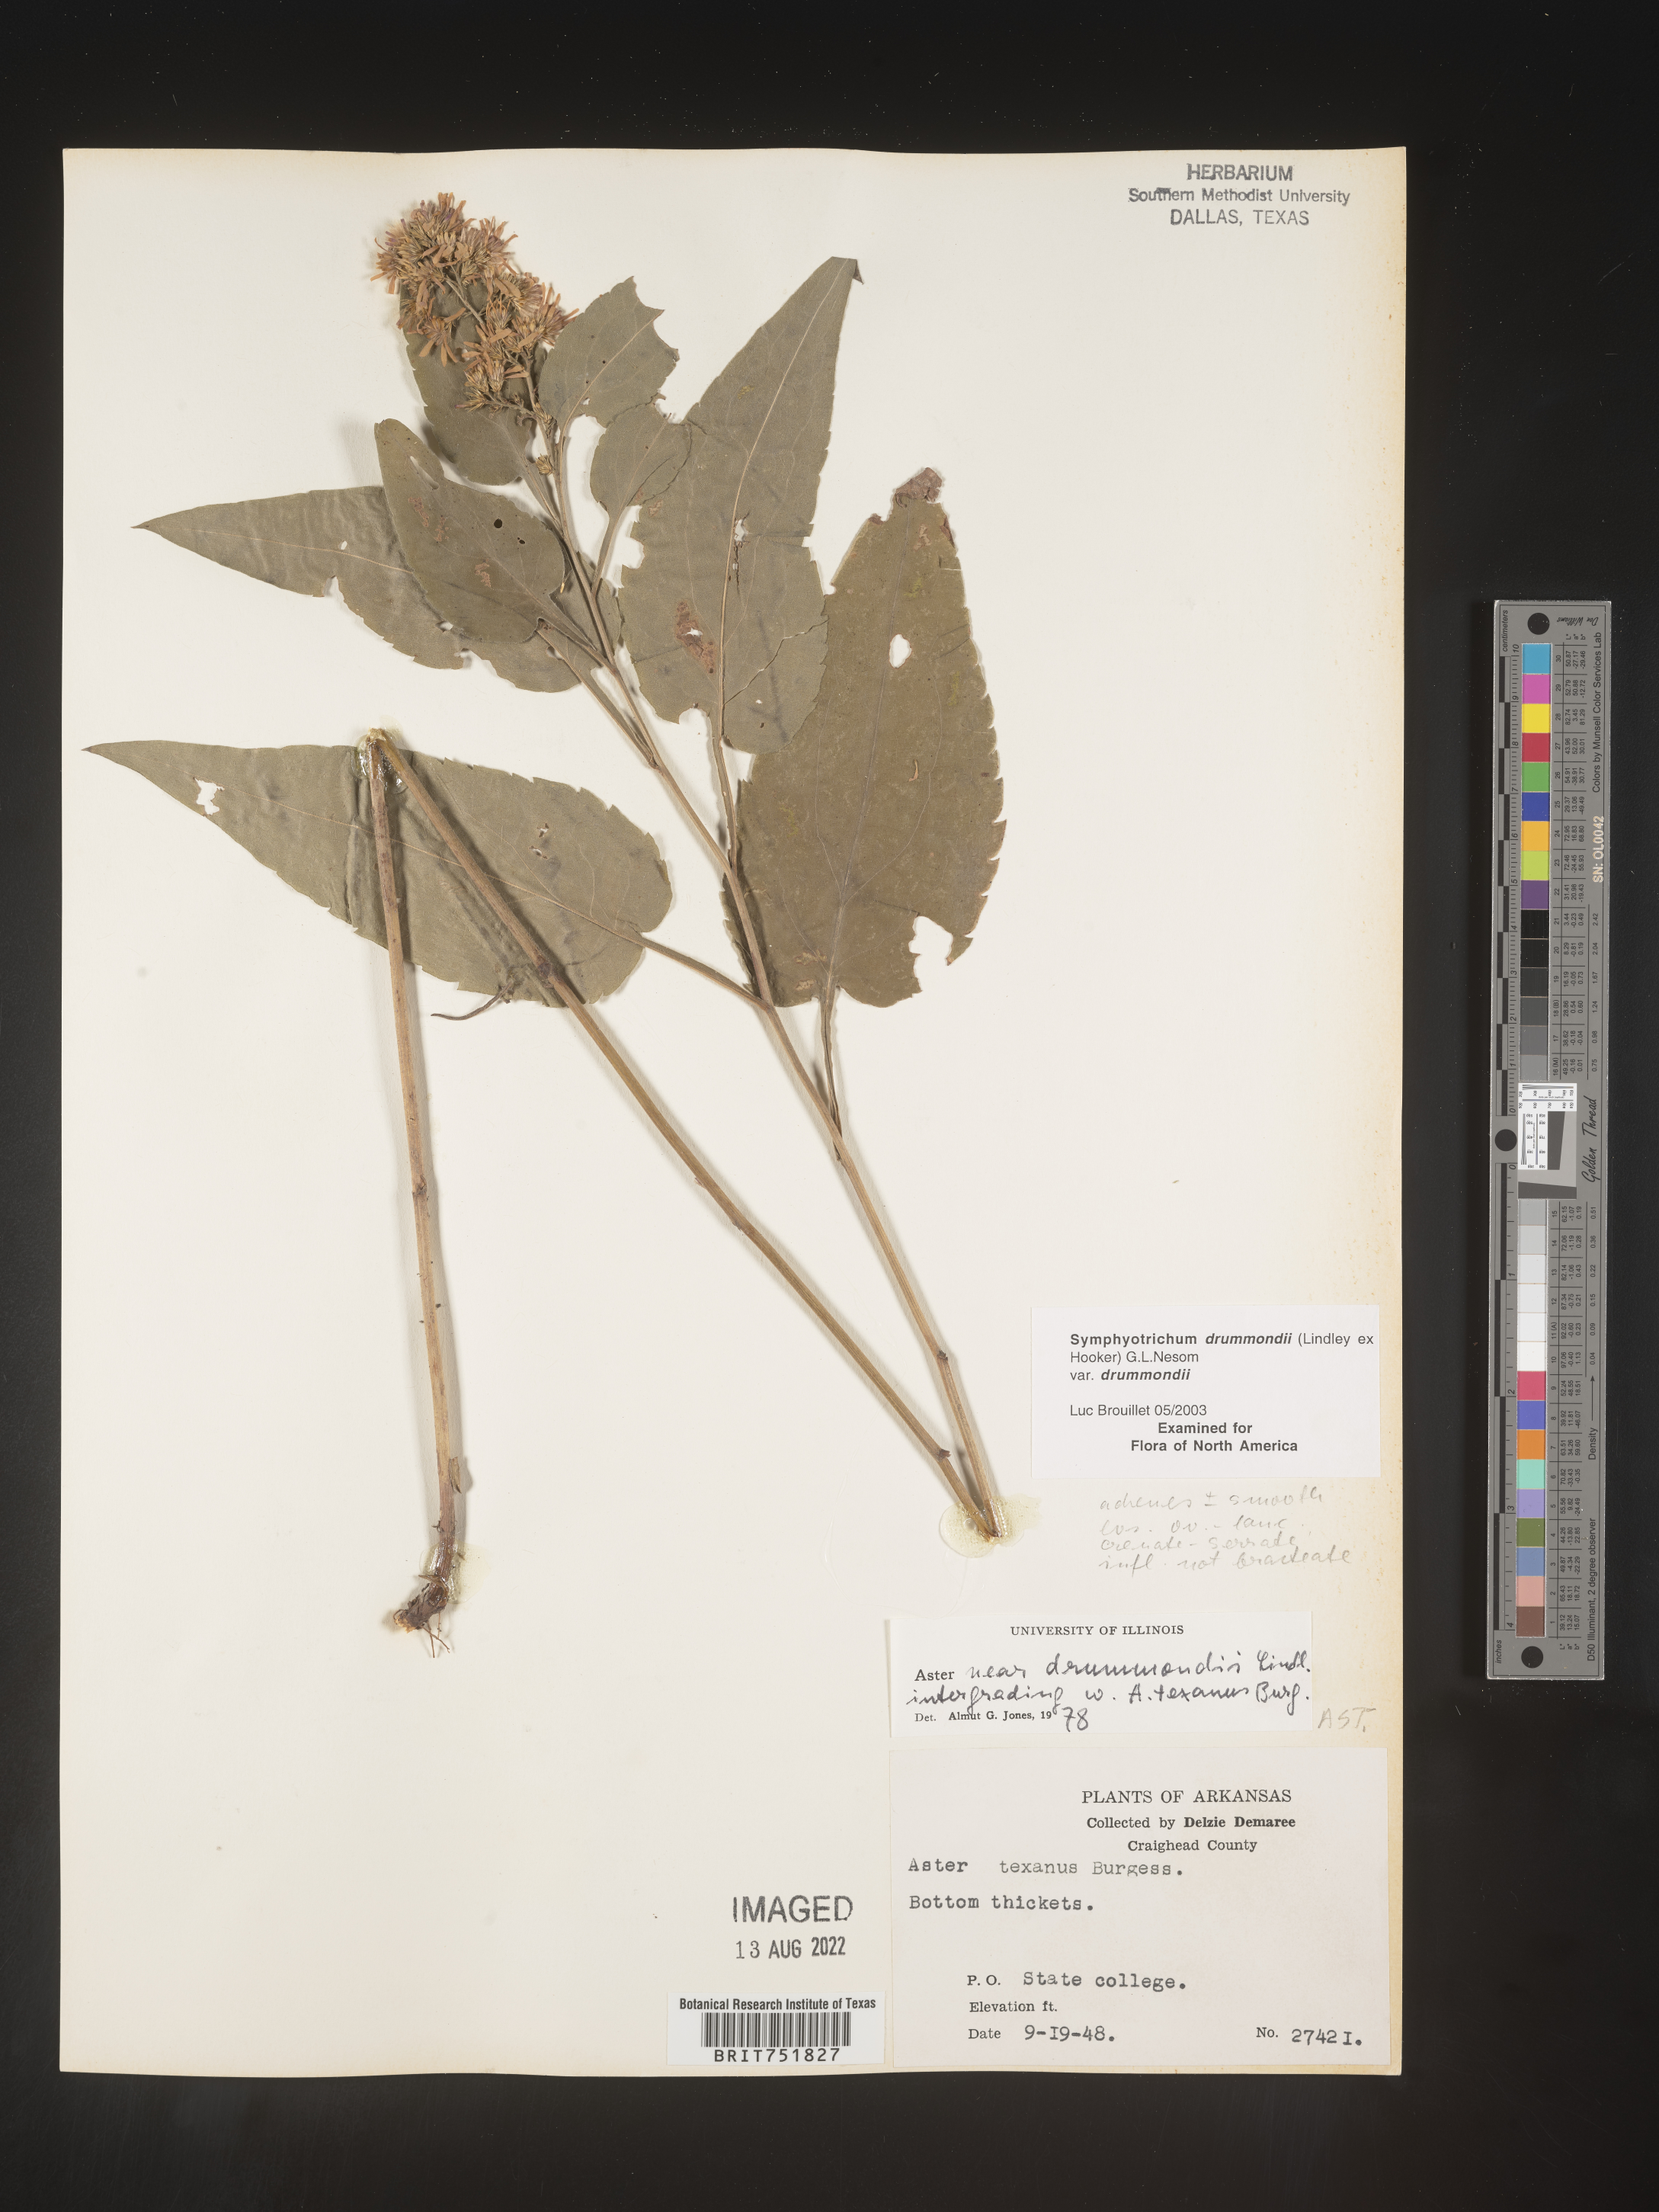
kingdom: Plantae
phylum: Tracheophyta
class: Magnoliopsida
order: Asterales
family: Asteraceae
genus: Symphyotrichum
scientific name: Symphyotrichum drummondii
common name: Drummond's aster
